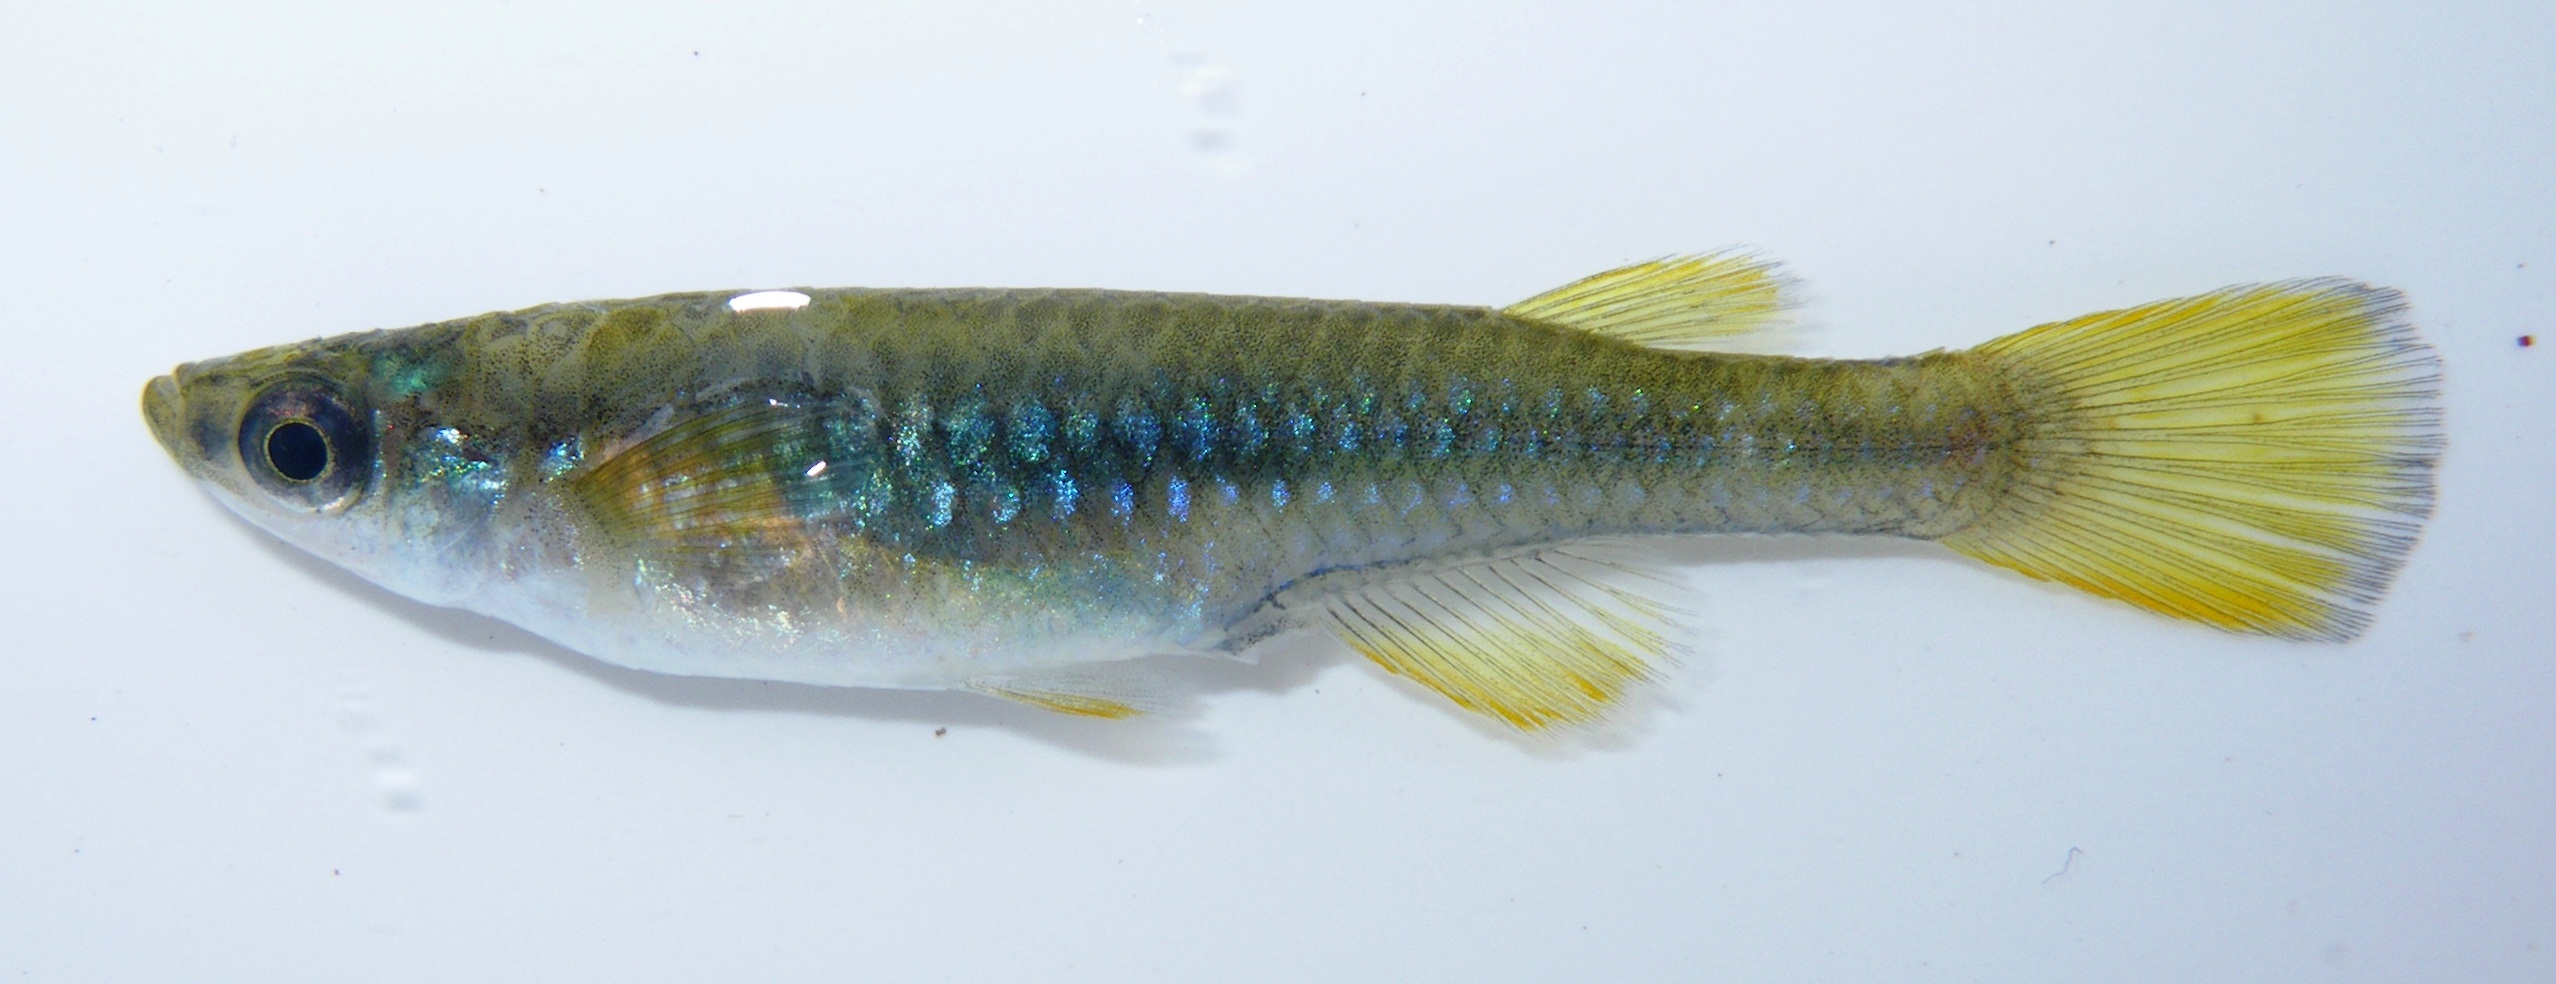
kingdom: Animalia
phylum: Chordata
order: Cyprinodontiformes
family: Poeciliidae
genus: Micropanchax
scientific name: Micropanchax johnstoni
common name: Johnston's topminnow
